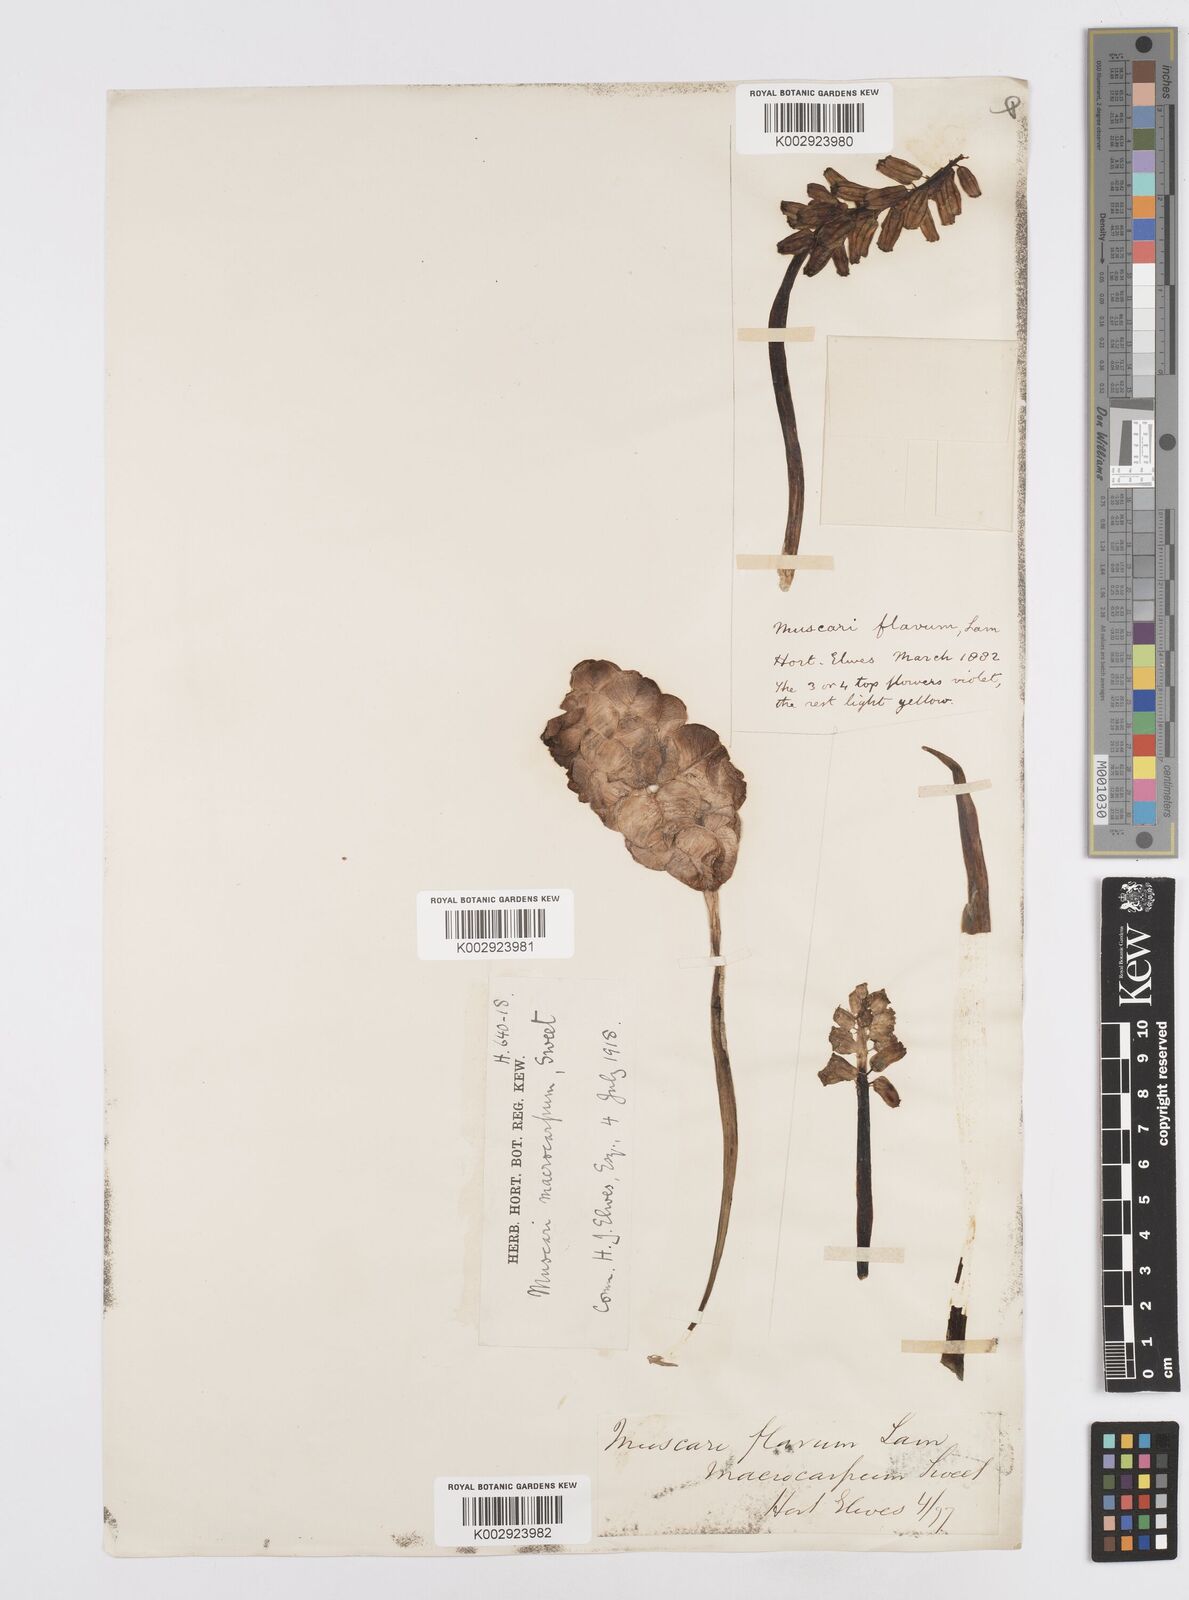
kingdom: Plantae
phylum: Tracheophyta
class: Liliopsida
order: Asparagales
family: Asparagaceae
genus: Muscarimia
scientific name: Muscarimia macrocarpa
